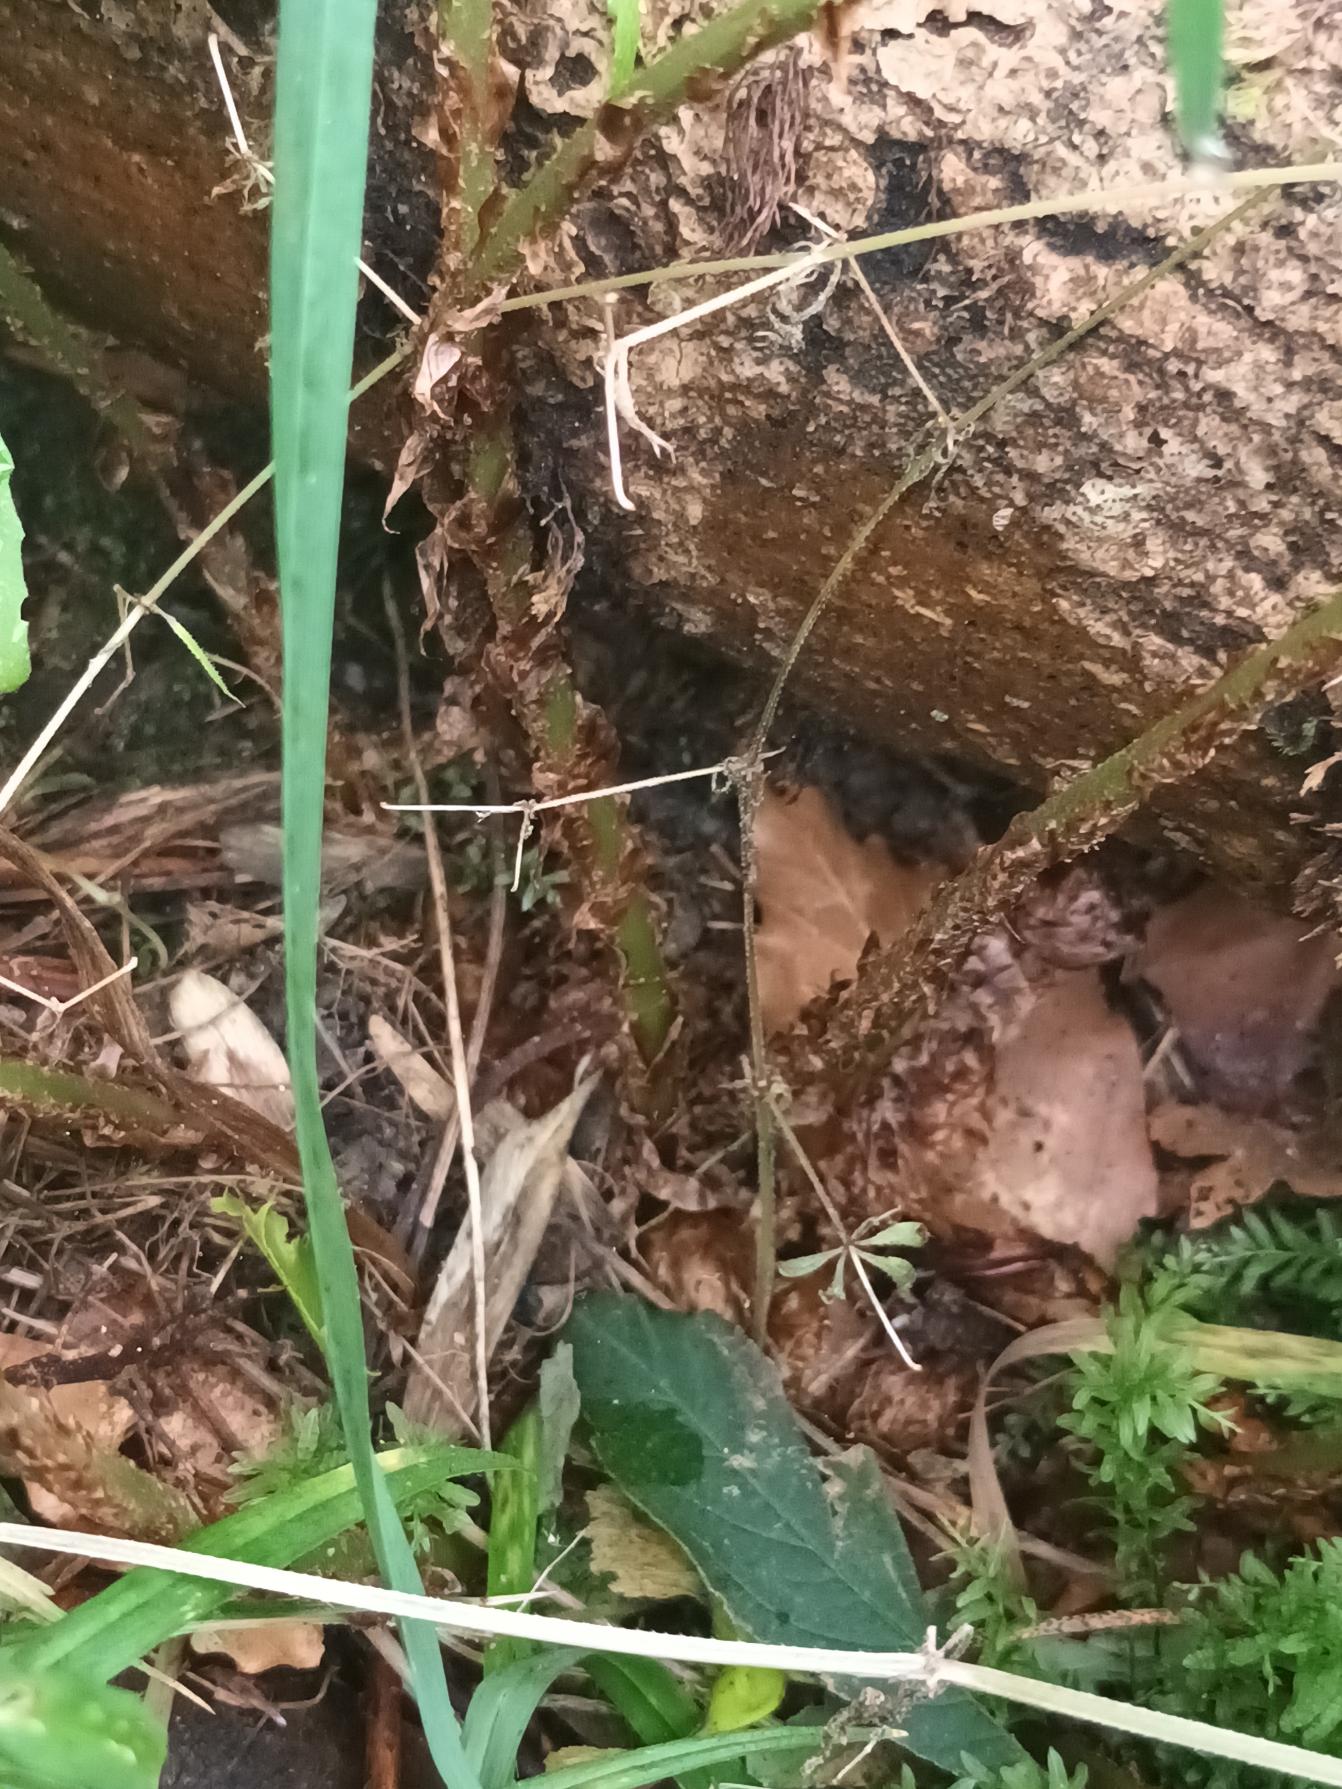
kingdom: Plantae
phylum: Tracheophyta
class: Polypodiopsida
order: Polypodiales
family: Dryopteridaceae
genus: Dryopteris
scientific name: Dryopteris dilatata
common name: Bredbladet mangeløv
